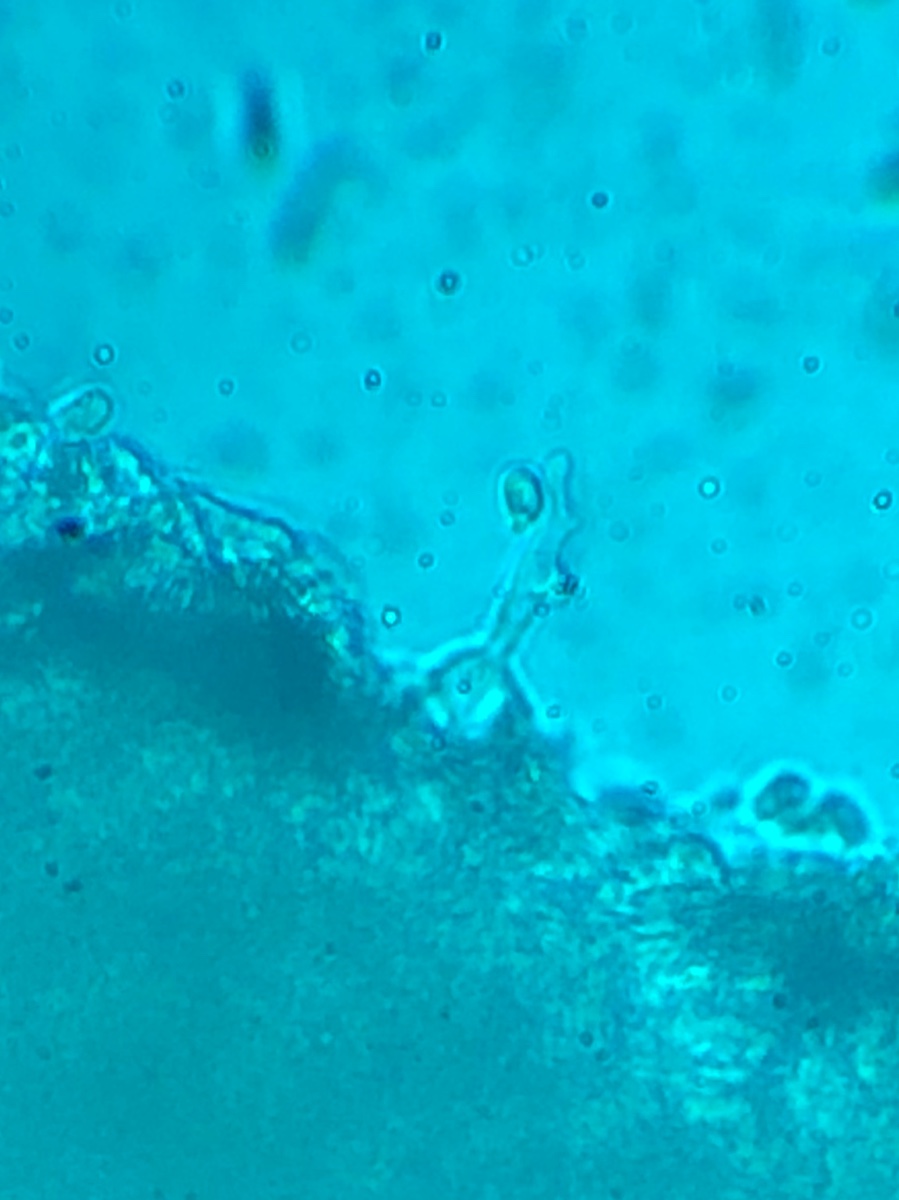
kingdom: Fungi
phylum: Basidiomycota
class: Agaricomycetes
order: Agaricales
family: Mycenaceae
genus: Mycena
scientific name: Mycena latifolia
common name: bredbladet huesvamp
